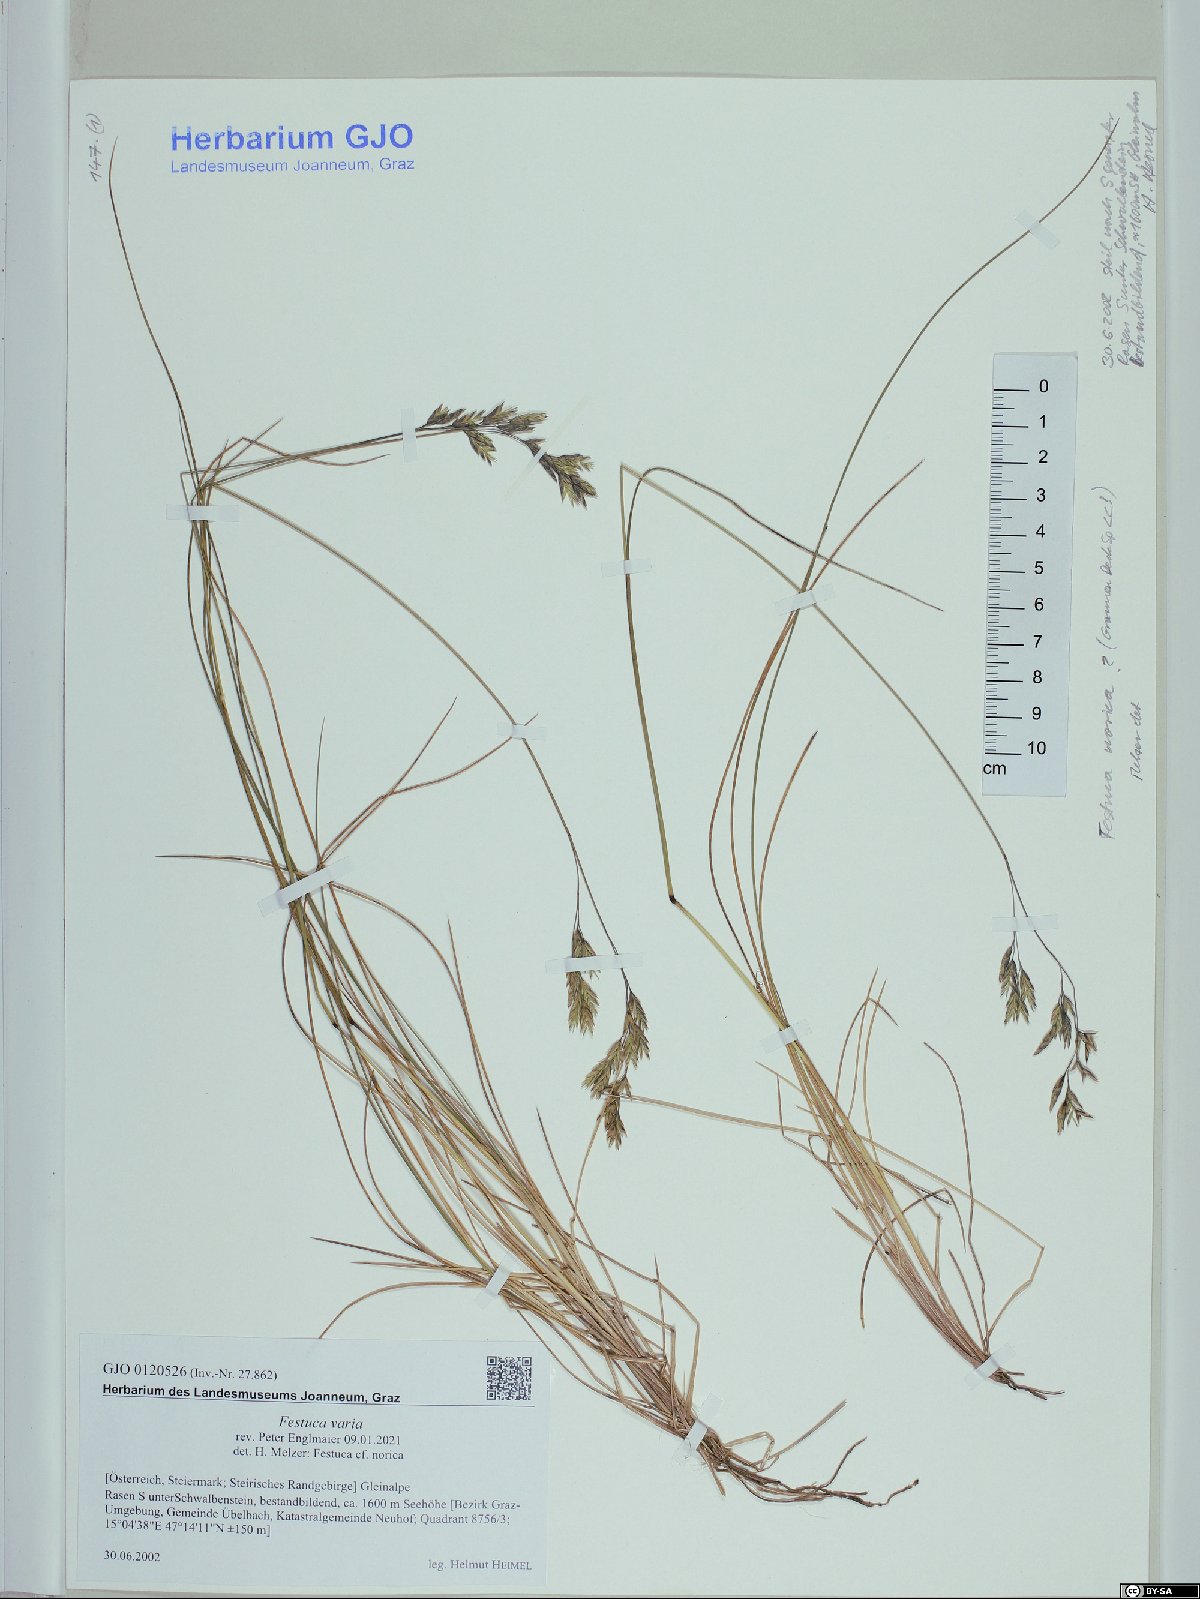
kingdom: Plantae
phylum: Tracheophyta
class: Liliopsida
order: Poales
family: Poaceae
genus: Festuca
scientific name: Festuca varia
